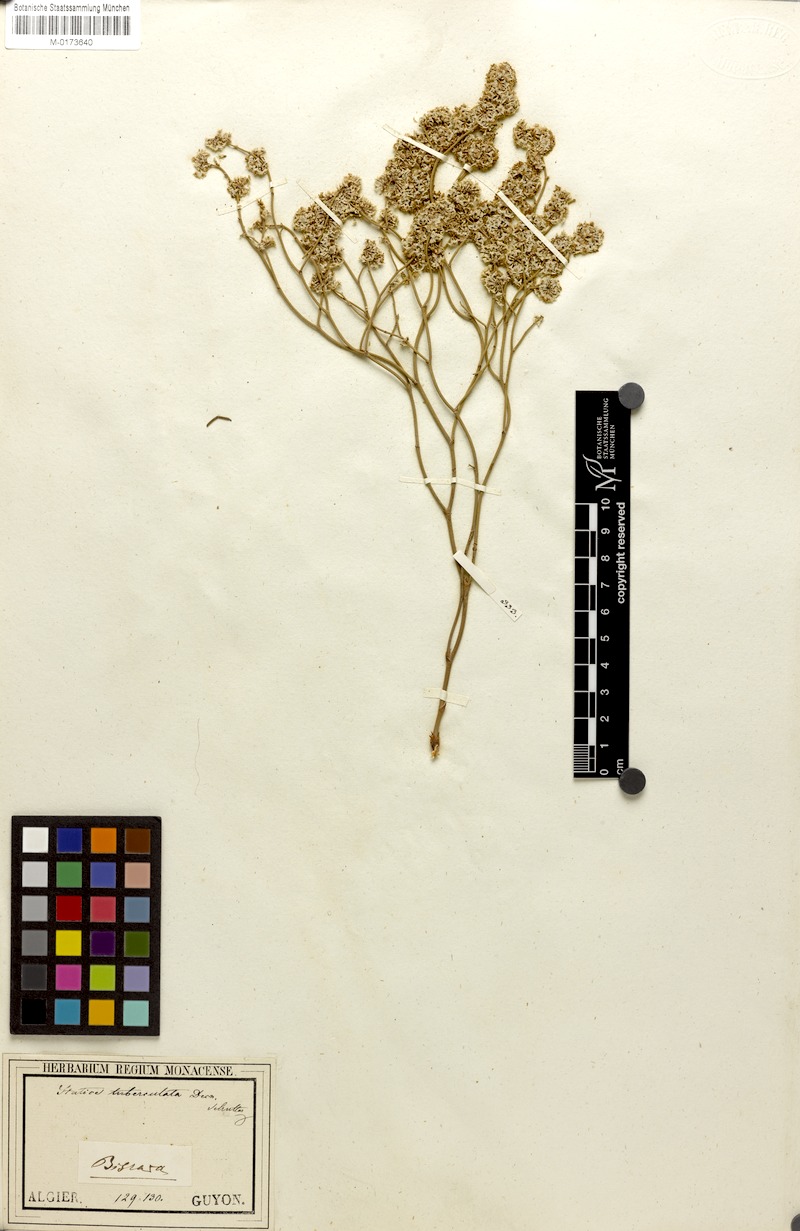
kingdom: Plantae
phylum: Tracheophyta
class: Magnoliopsida
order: Caryophyllales
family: Plumbaginaceae
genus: Limonium
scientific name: Limonium tuberculatum
